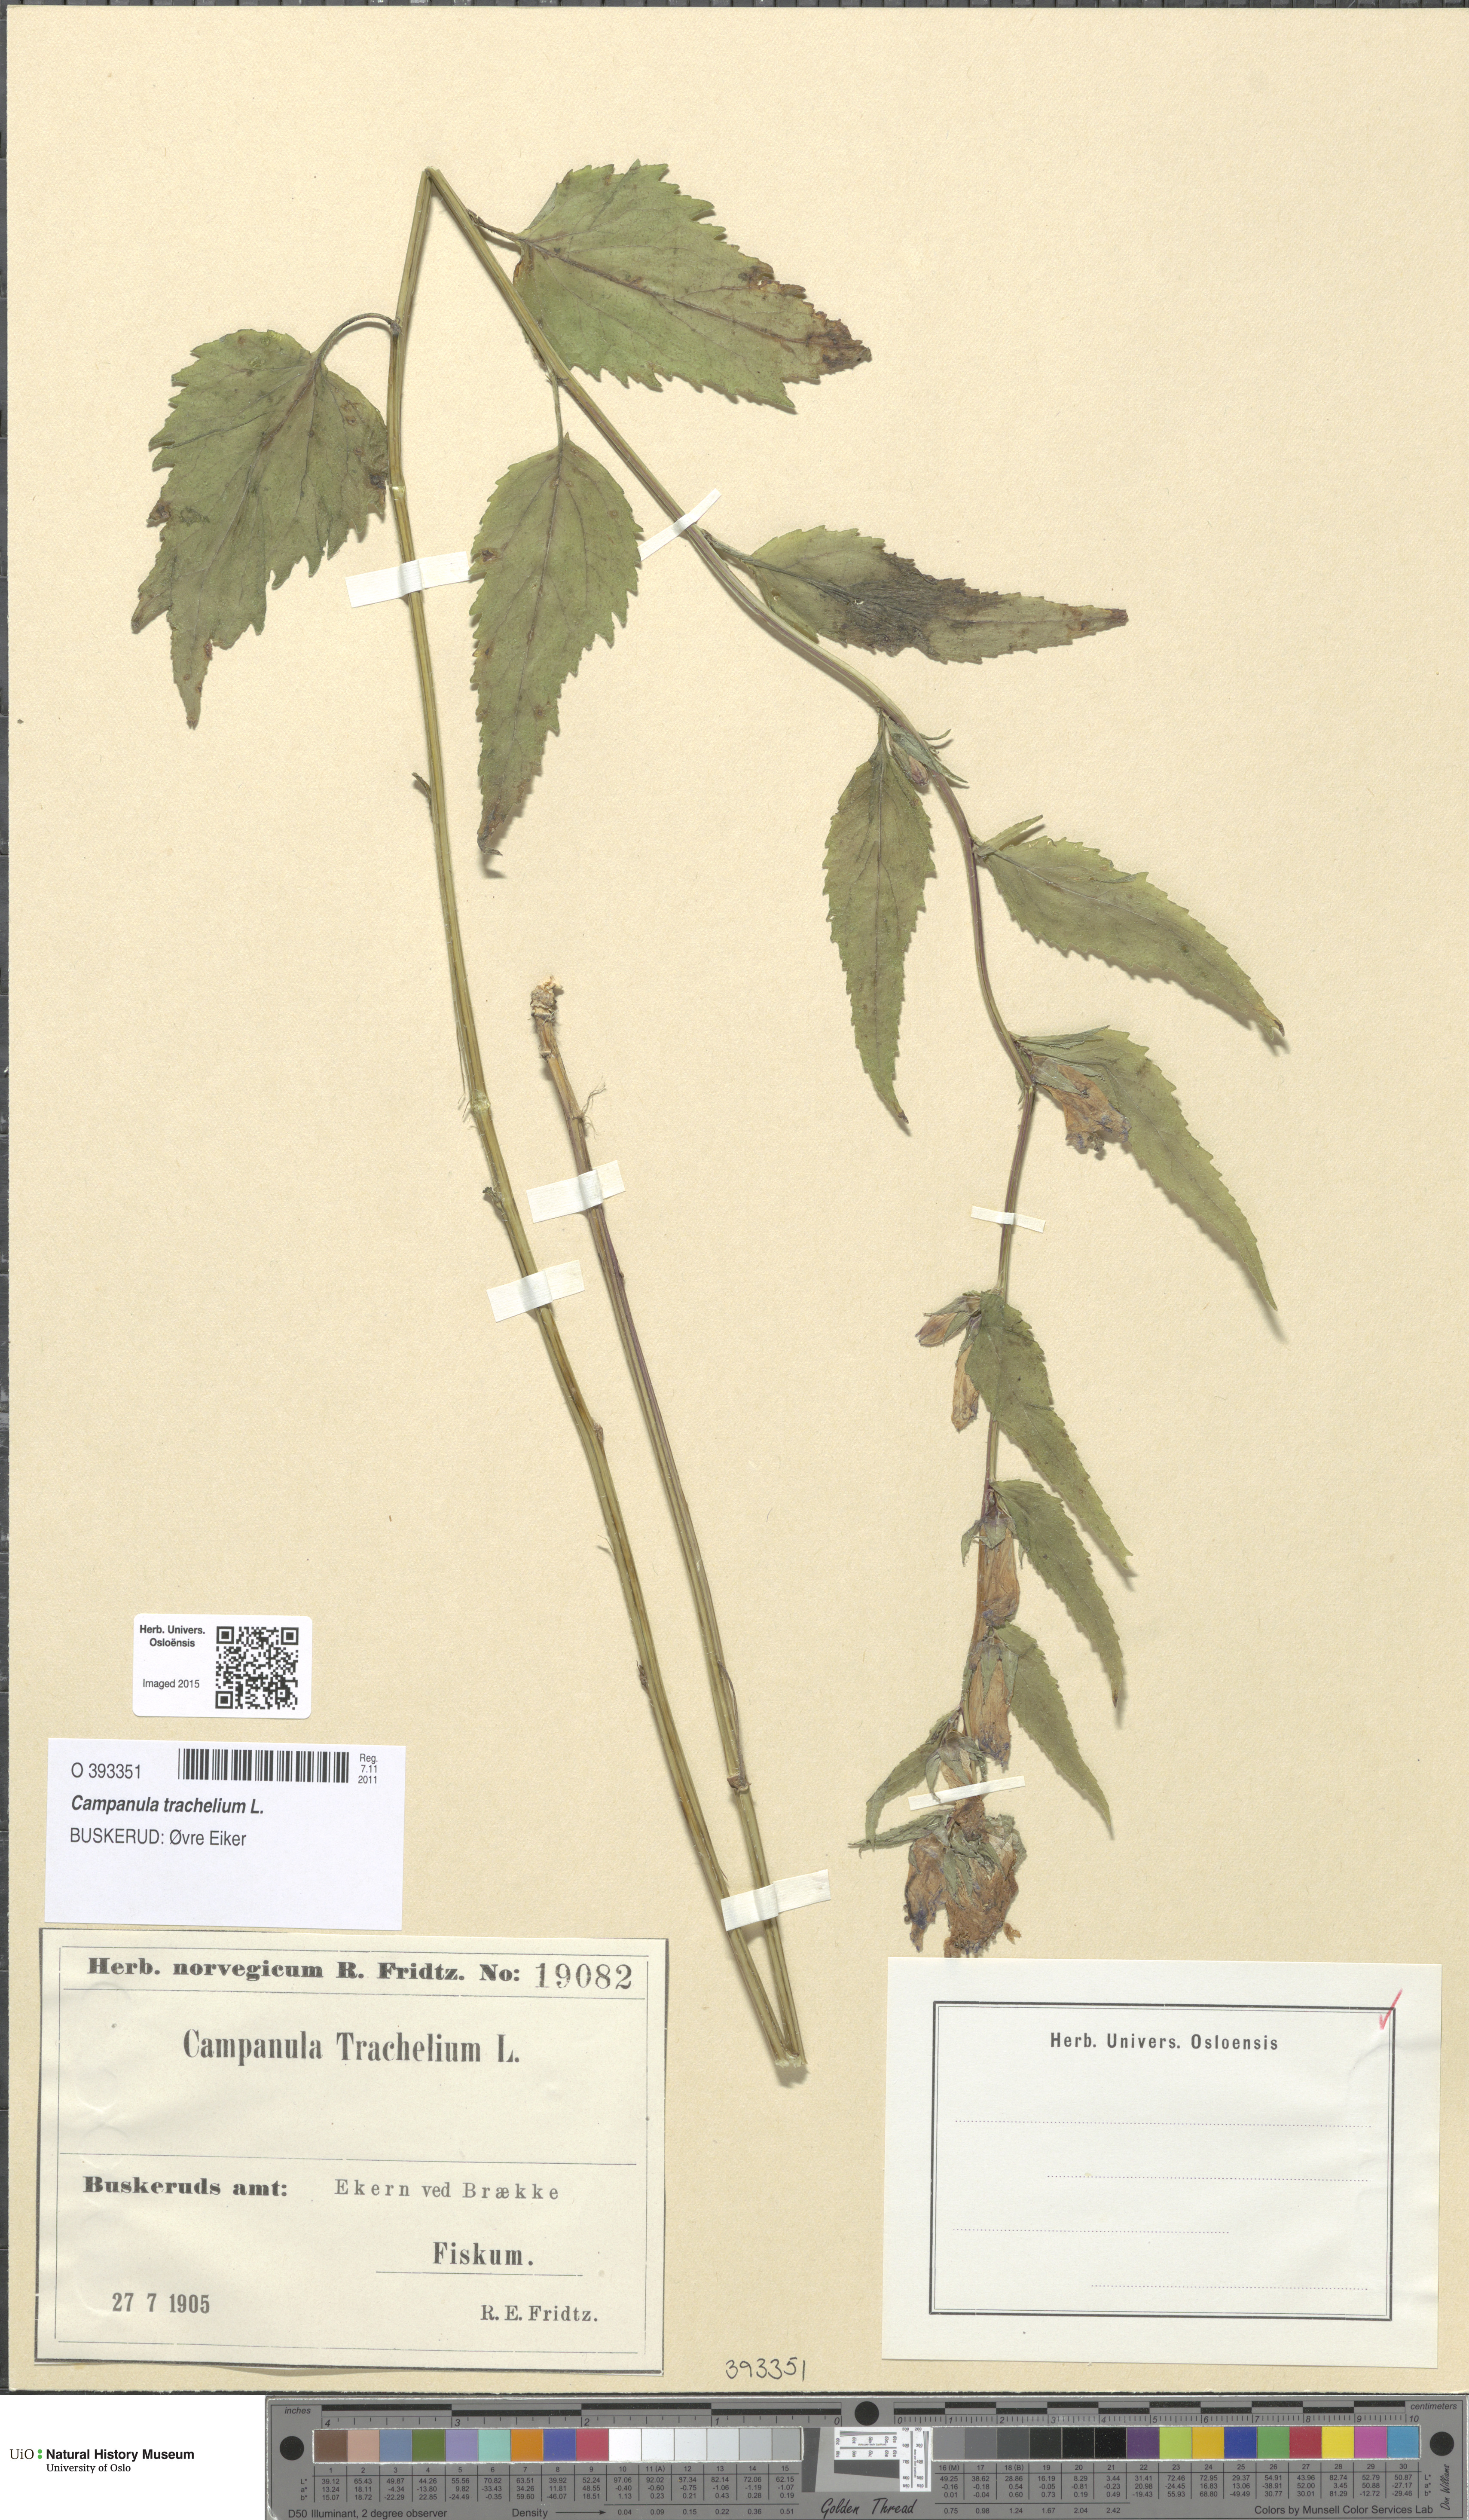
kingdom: Plantae
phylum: Tracheophyta
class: Magnoliopsida
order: Asterales
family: Campanulaceae
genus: Campanula
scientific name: Campanula trachelium
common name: Nettle-leaved bellflower
